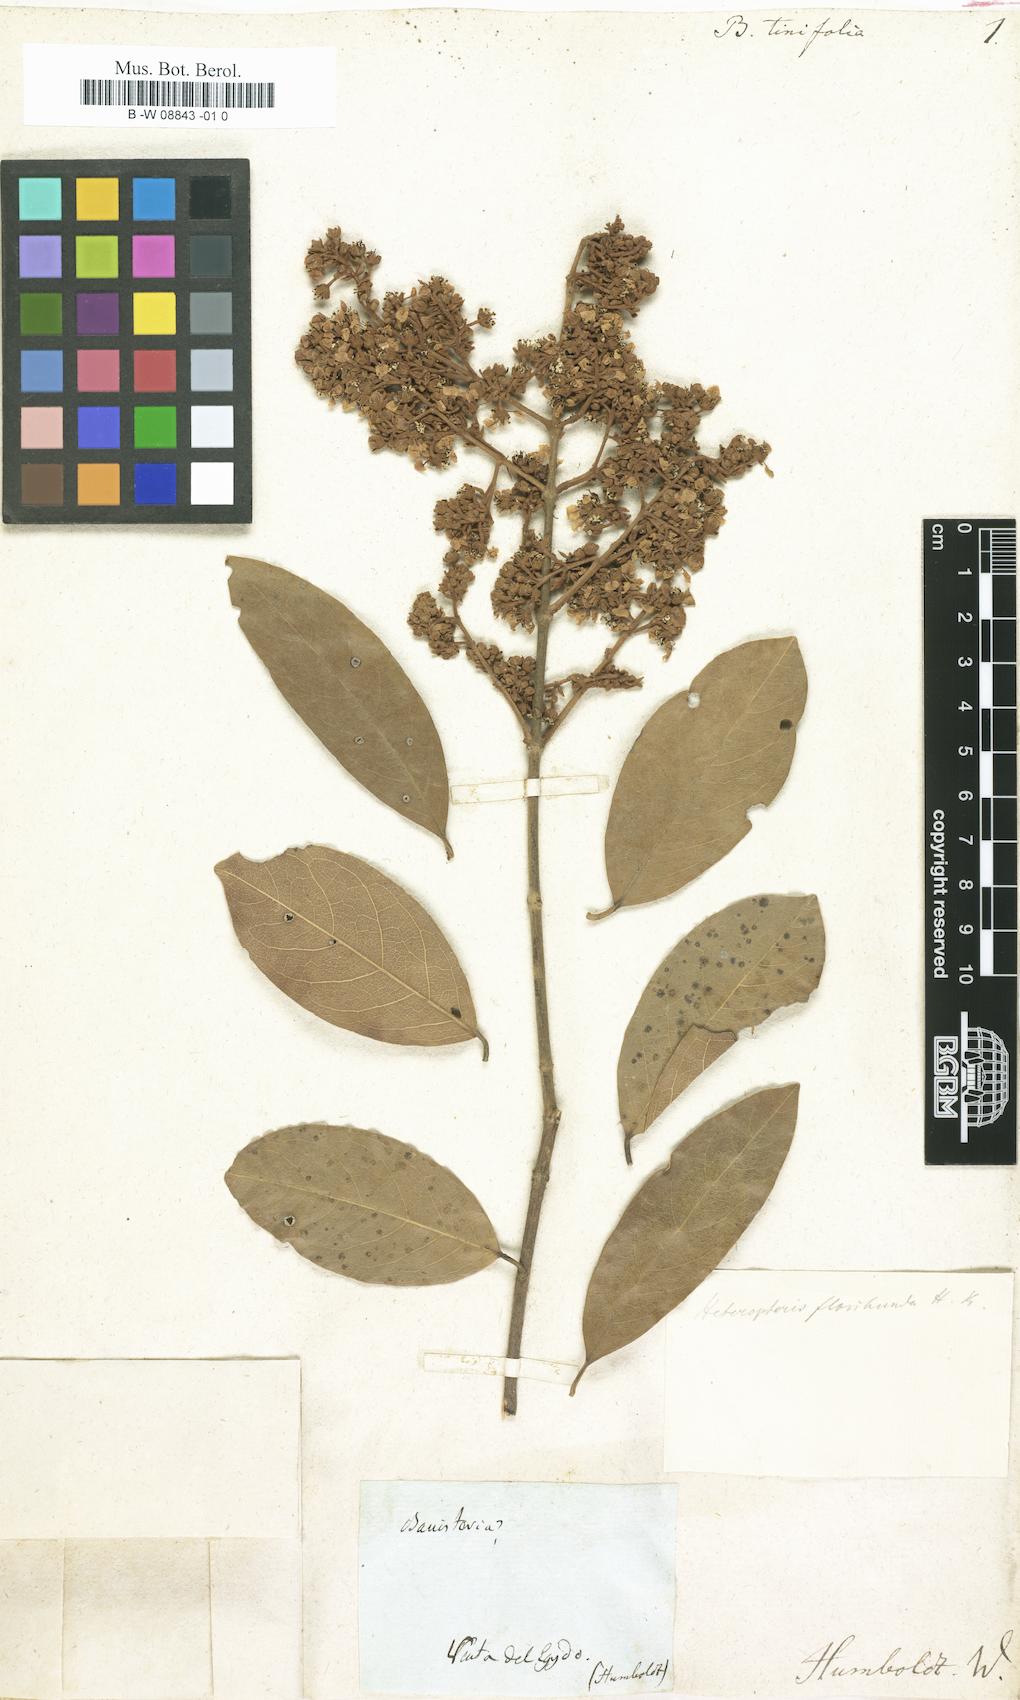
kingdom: Plantae
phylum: Tracheophyta
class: Magnoliopsida
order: Malpighiales
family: Malpighiaceae
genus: Stigmaphyllon
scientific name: Stigmaphyllon
